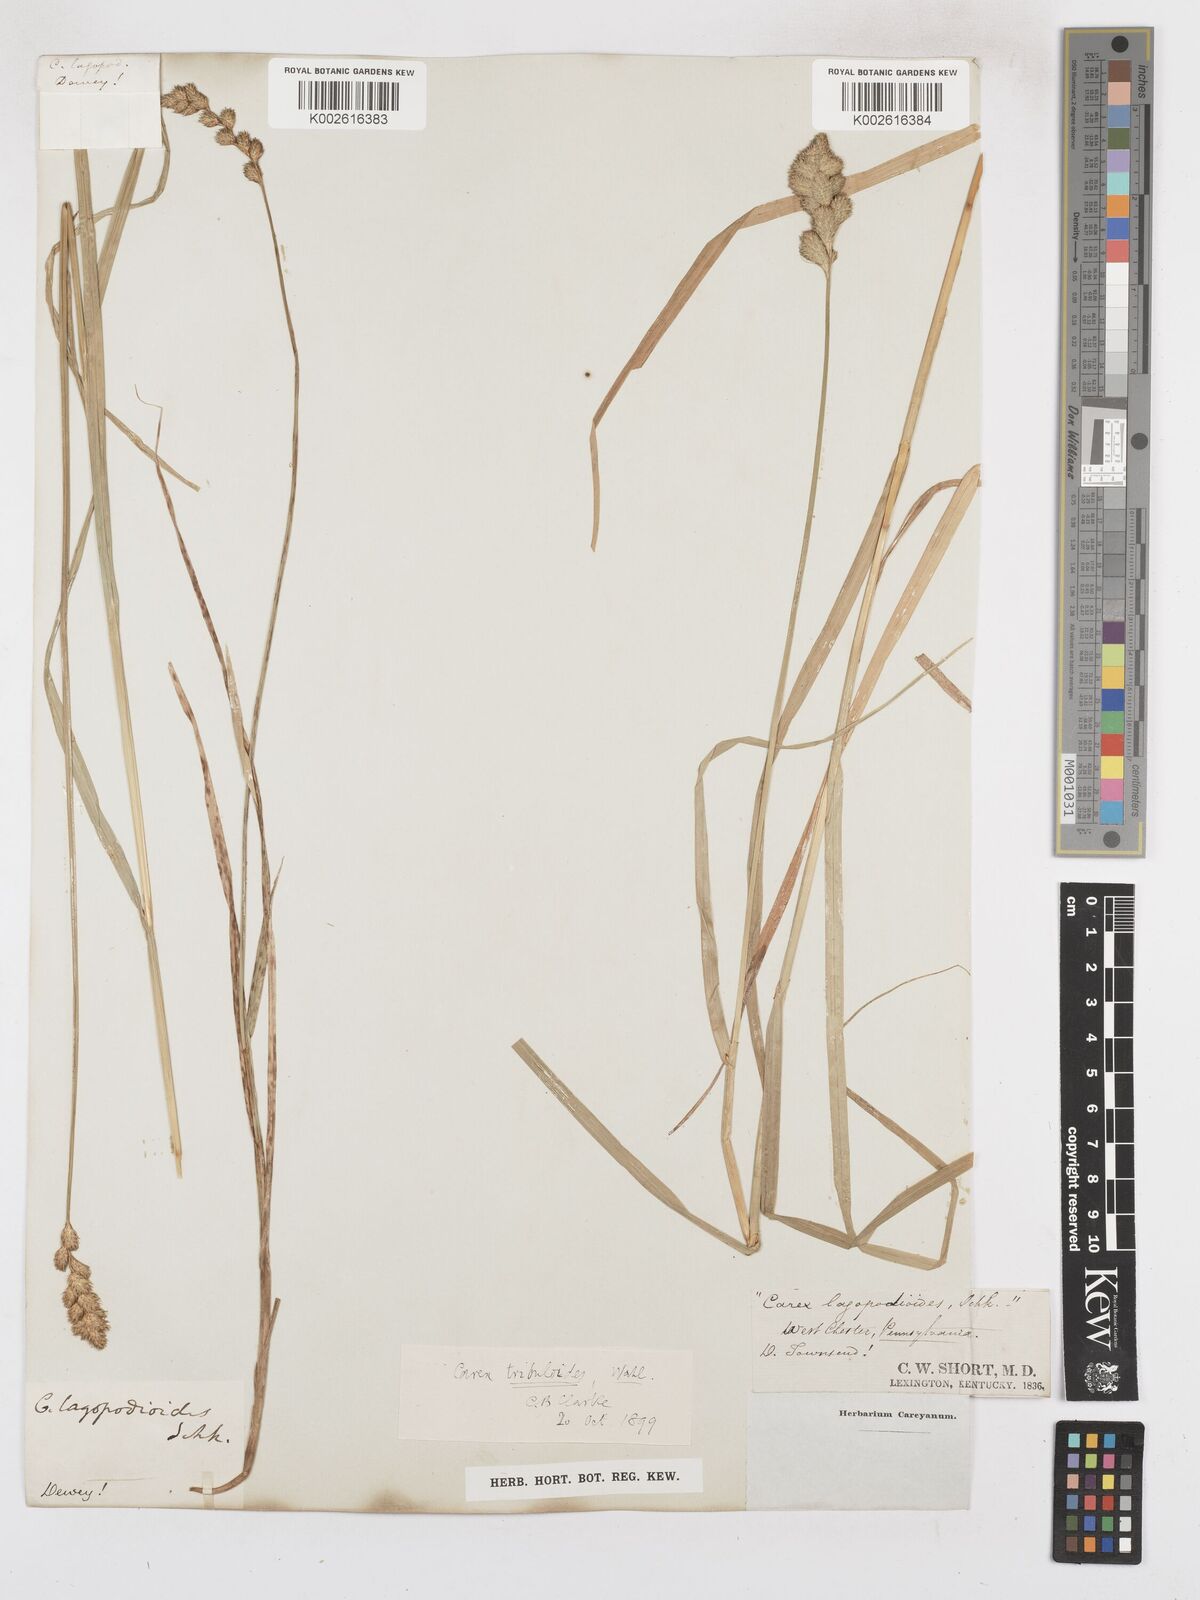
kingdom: Plantae
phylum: Tracheophyta
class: Liliopsida
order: Poales
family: Cyperaceae
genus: Carex
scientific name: Carex tribuloides
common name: Blunt broom sedge
